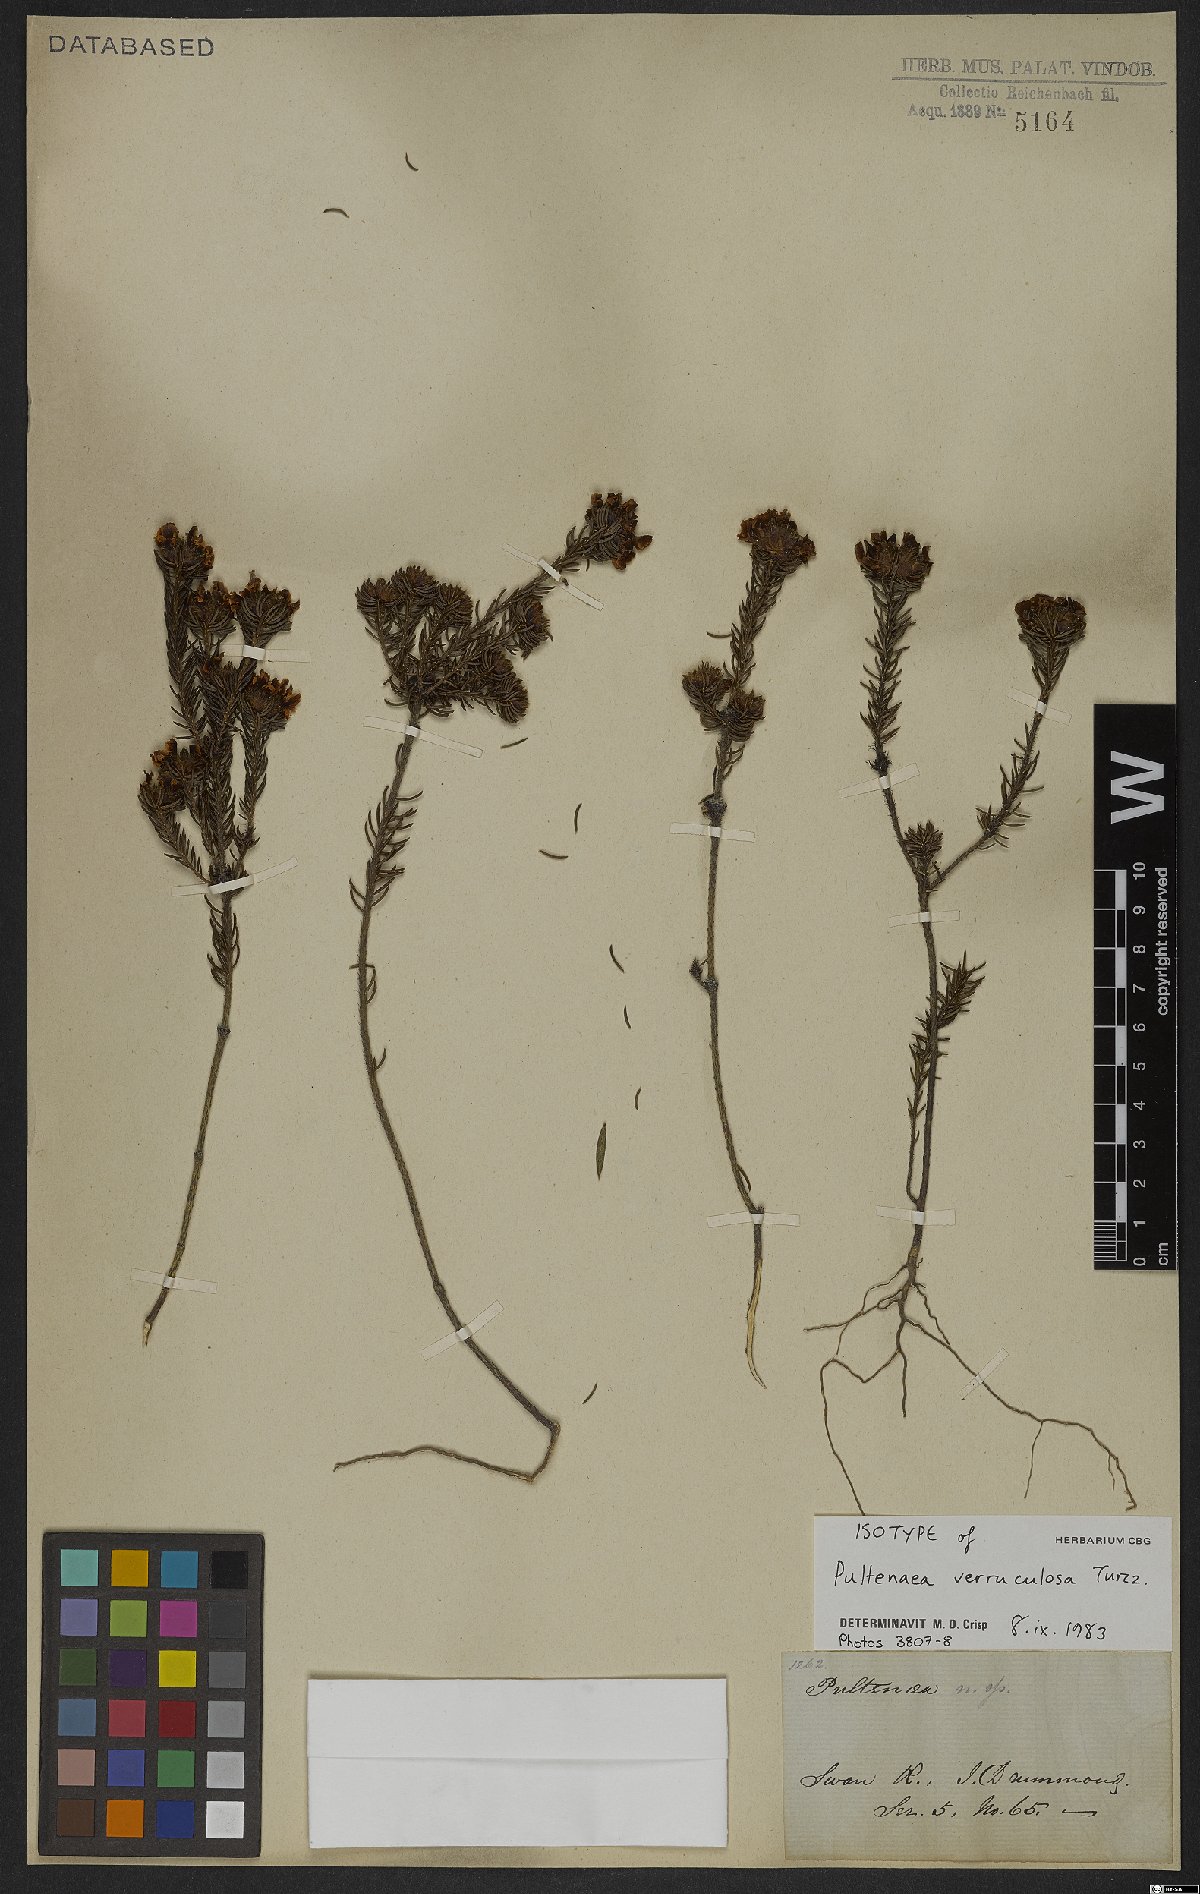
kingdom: Plantae
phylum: Tracheophyta
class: Magnoliopsida
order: Fabales
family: Fabaceae
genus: Pultenaea
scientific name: Pultenaea verruculosa
